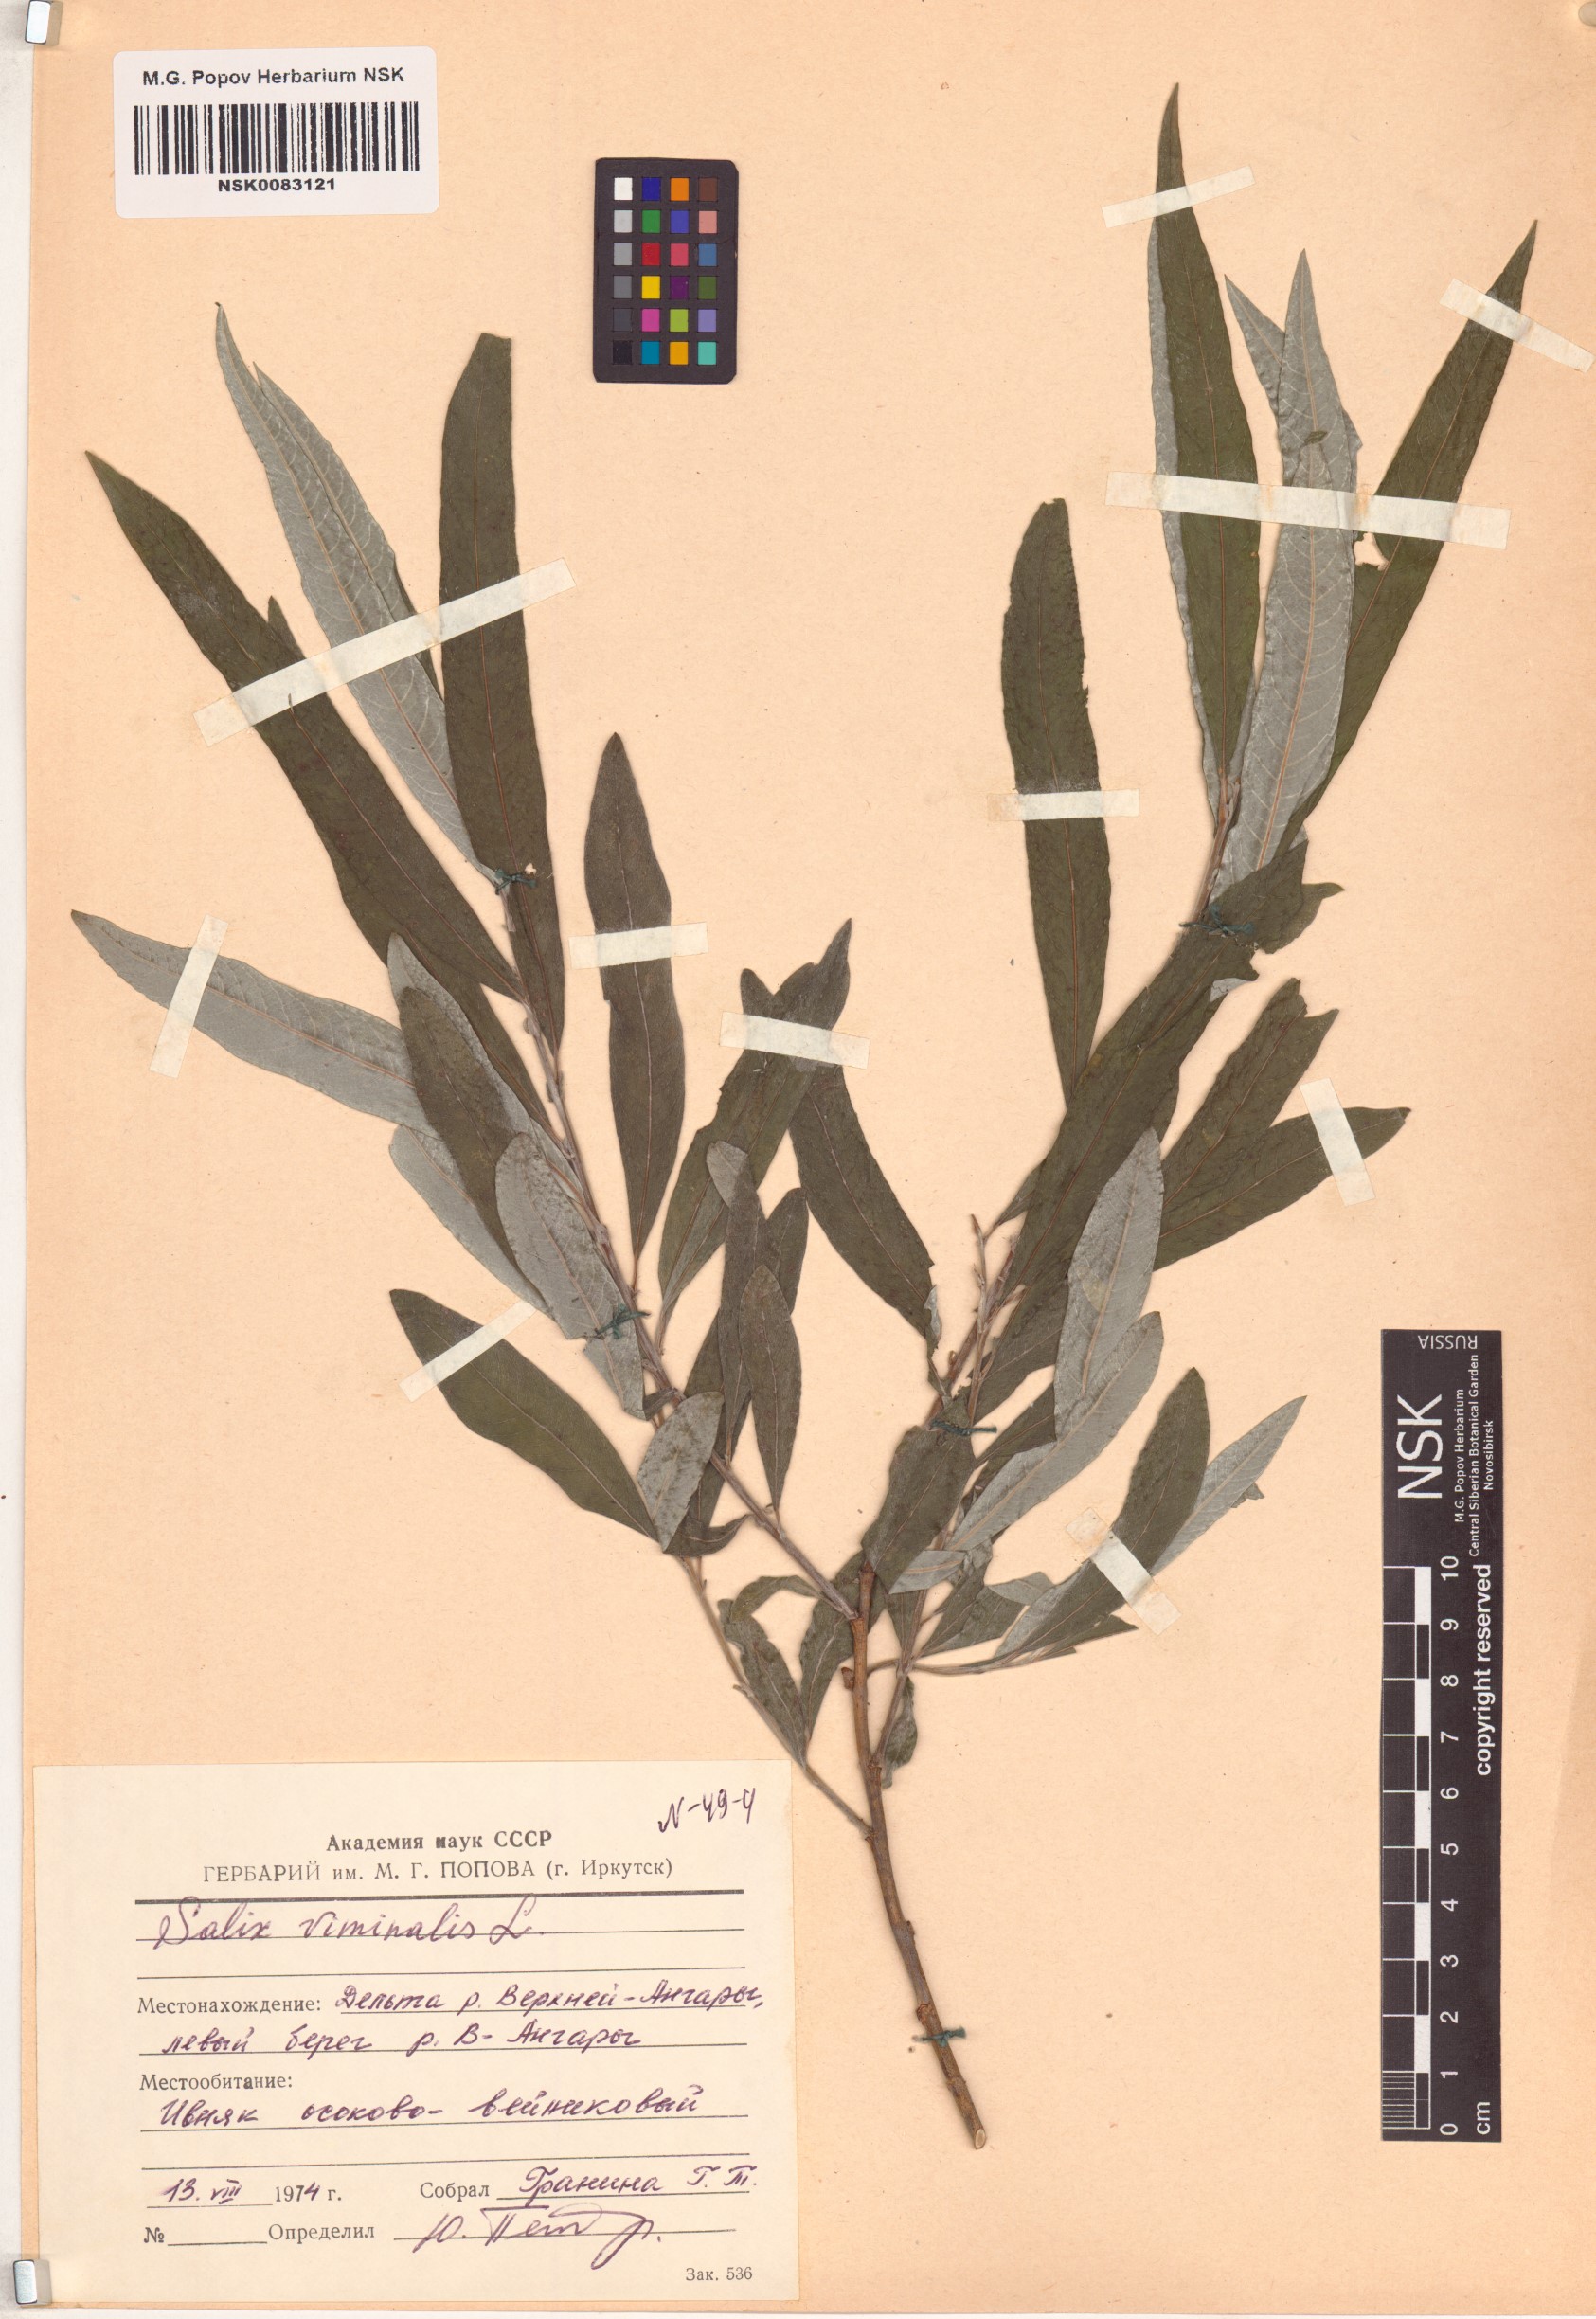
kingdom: Plantae
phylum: Tracheophyta
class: Magnoliopsida
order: Malpighiales
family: Salicaceae
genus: Salix
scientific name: Salix viminalis
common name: Osier
